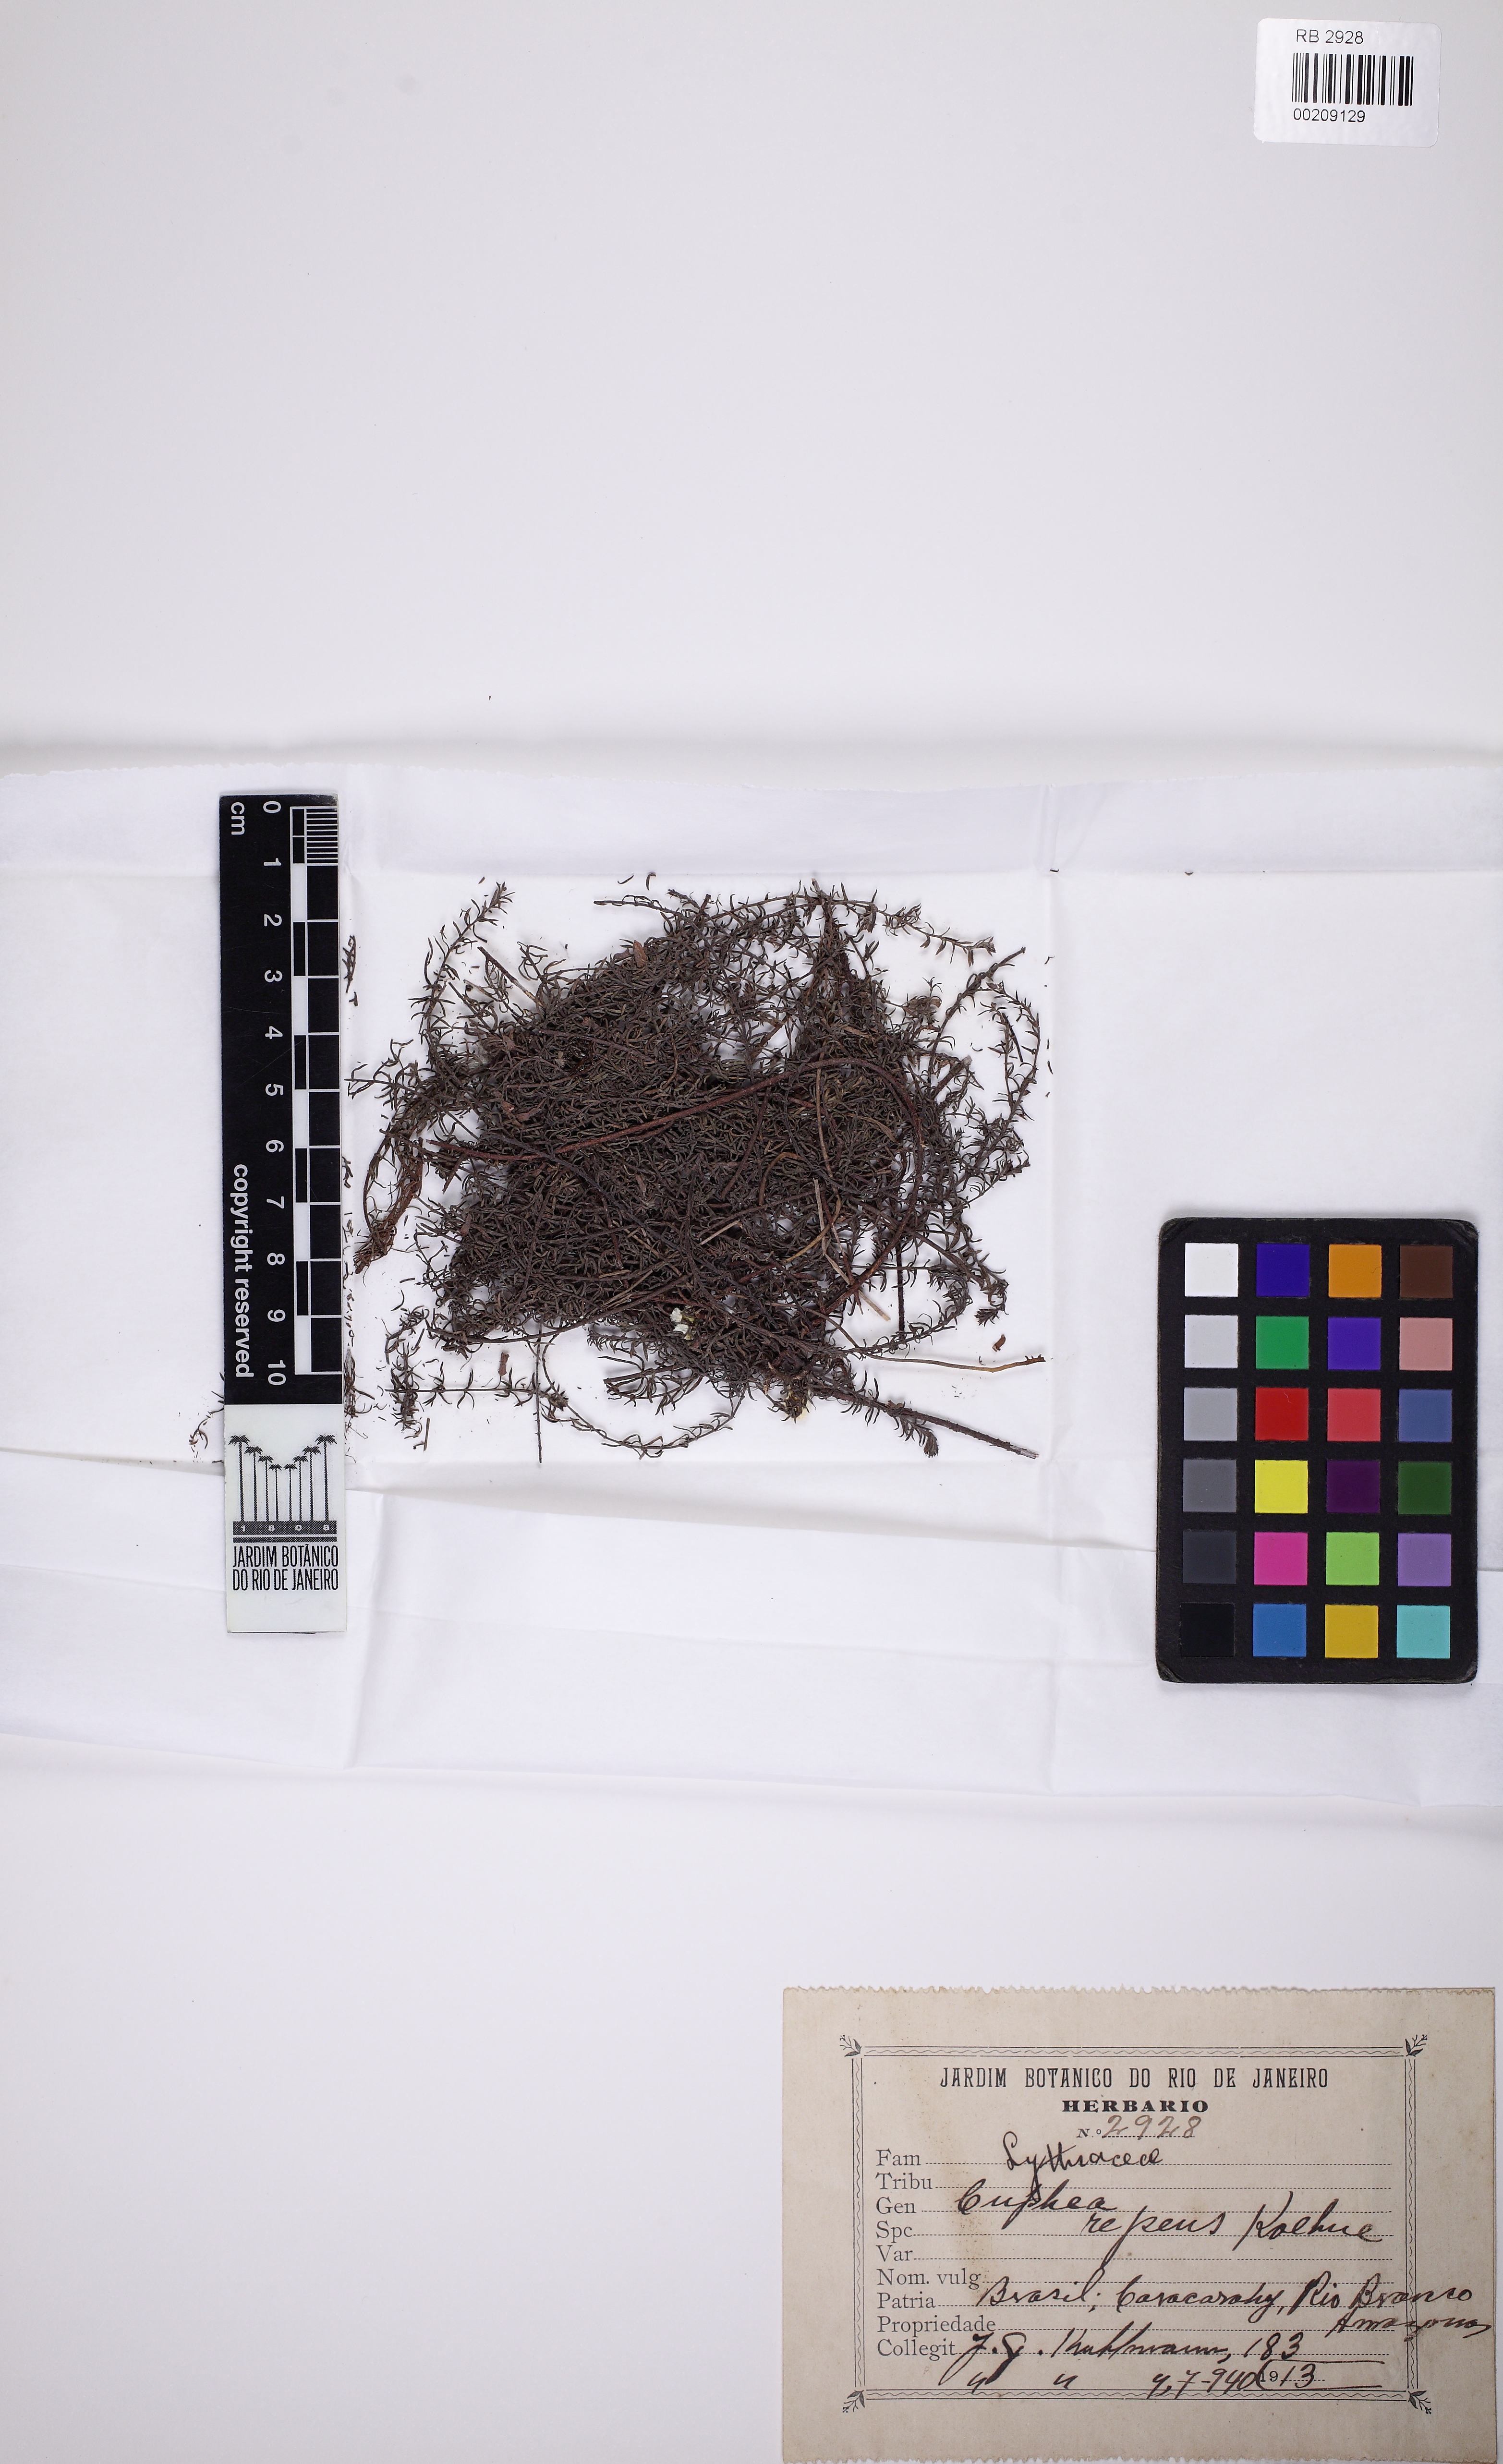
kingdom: Plantae
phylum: Tracheophyta
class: Magnoliopsida
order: Myrtales
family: Lythraceae
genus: Cuphea
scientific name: Cuphea repens
